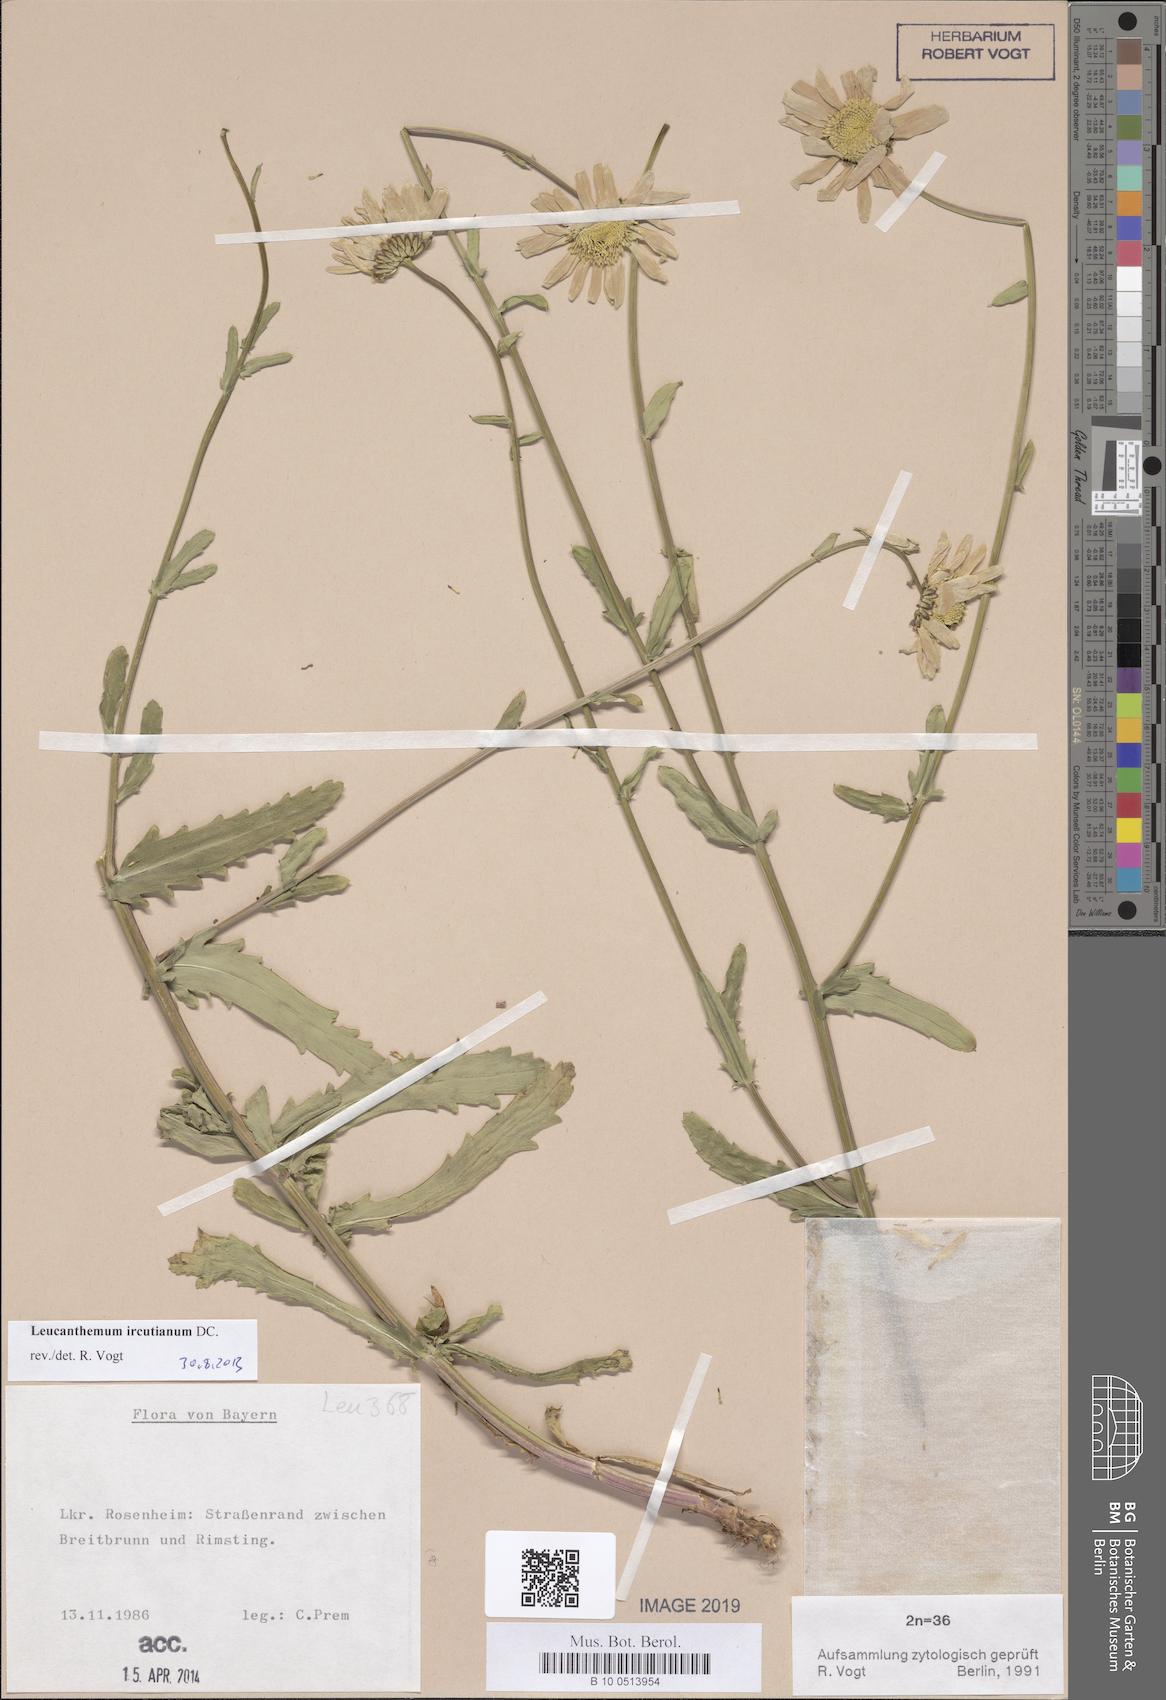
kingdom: Plantae
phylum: Tracheophyta
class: Magnoliopsida
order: Asterales
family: Asteraceae
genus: Leucanthemum
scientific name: Leucanthemum ircutianum
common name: Daisy
